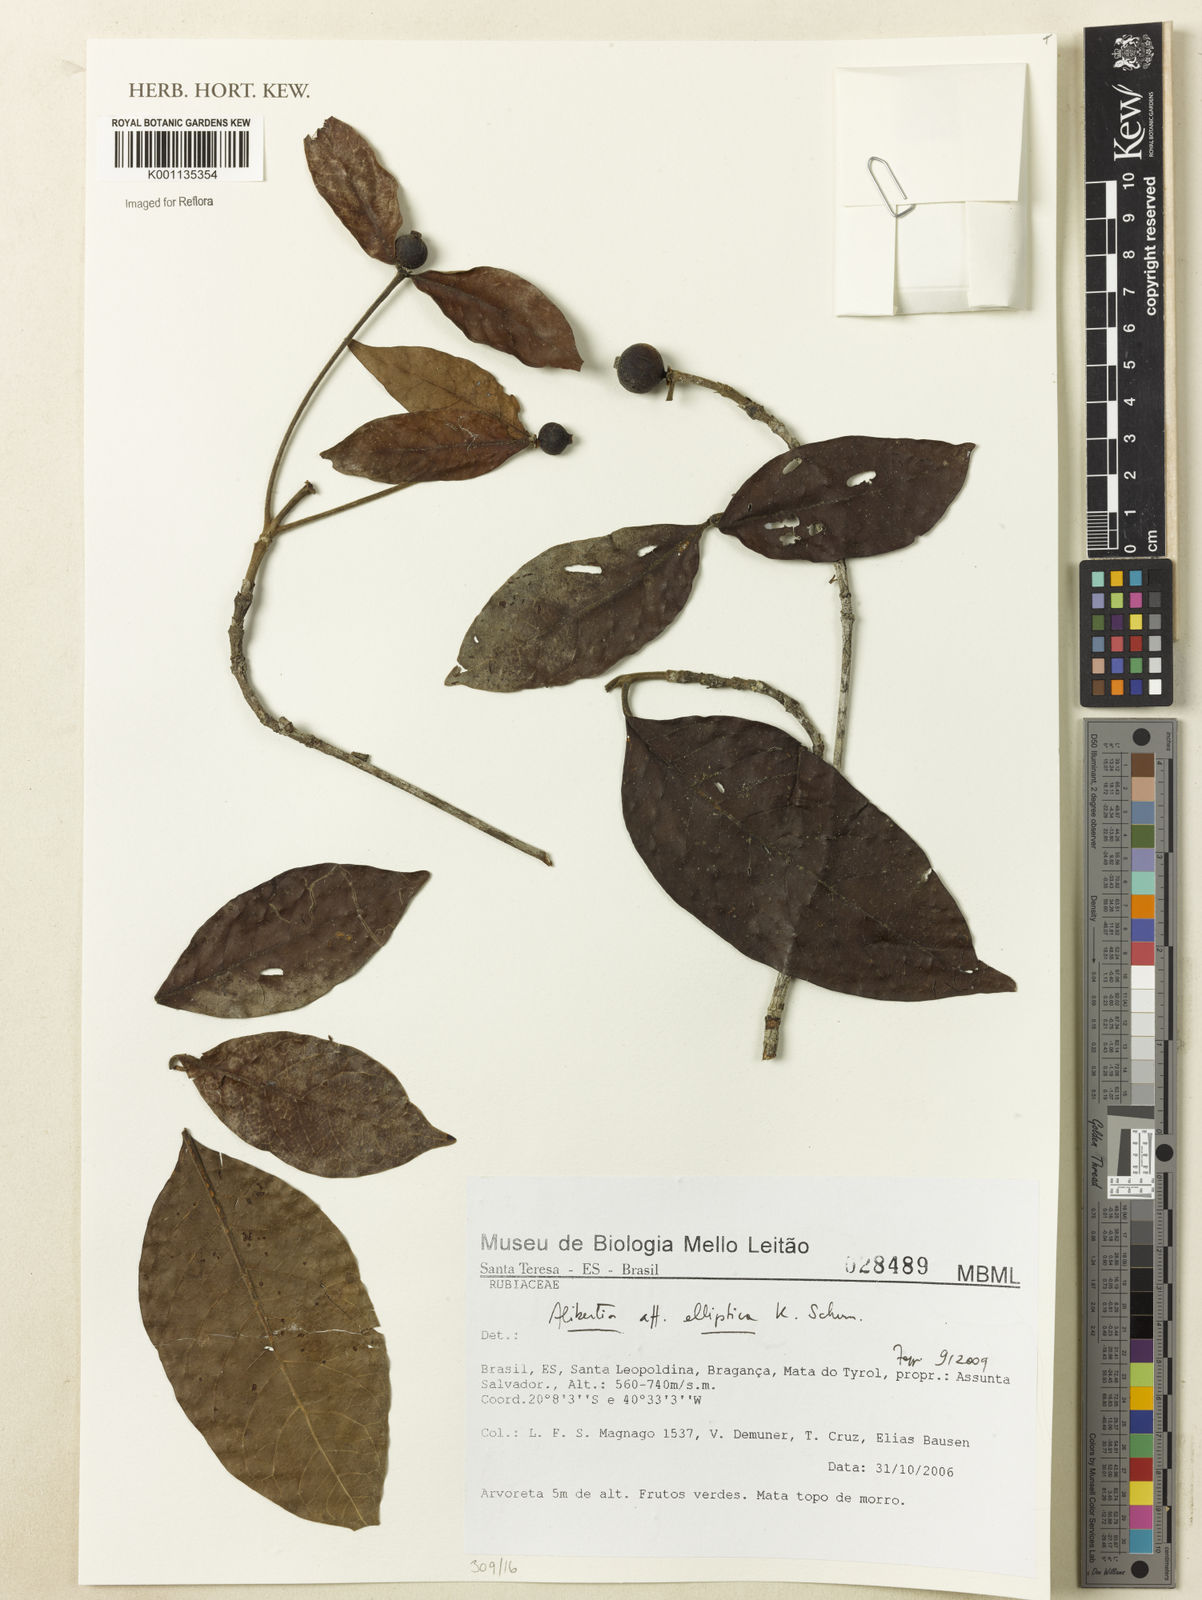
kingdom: Plantae
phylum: Tracheophyta
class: Magnoliopsida
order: Gentianales
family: Rubiaceae
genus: Cordiera
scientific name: Cordiera elliptica
